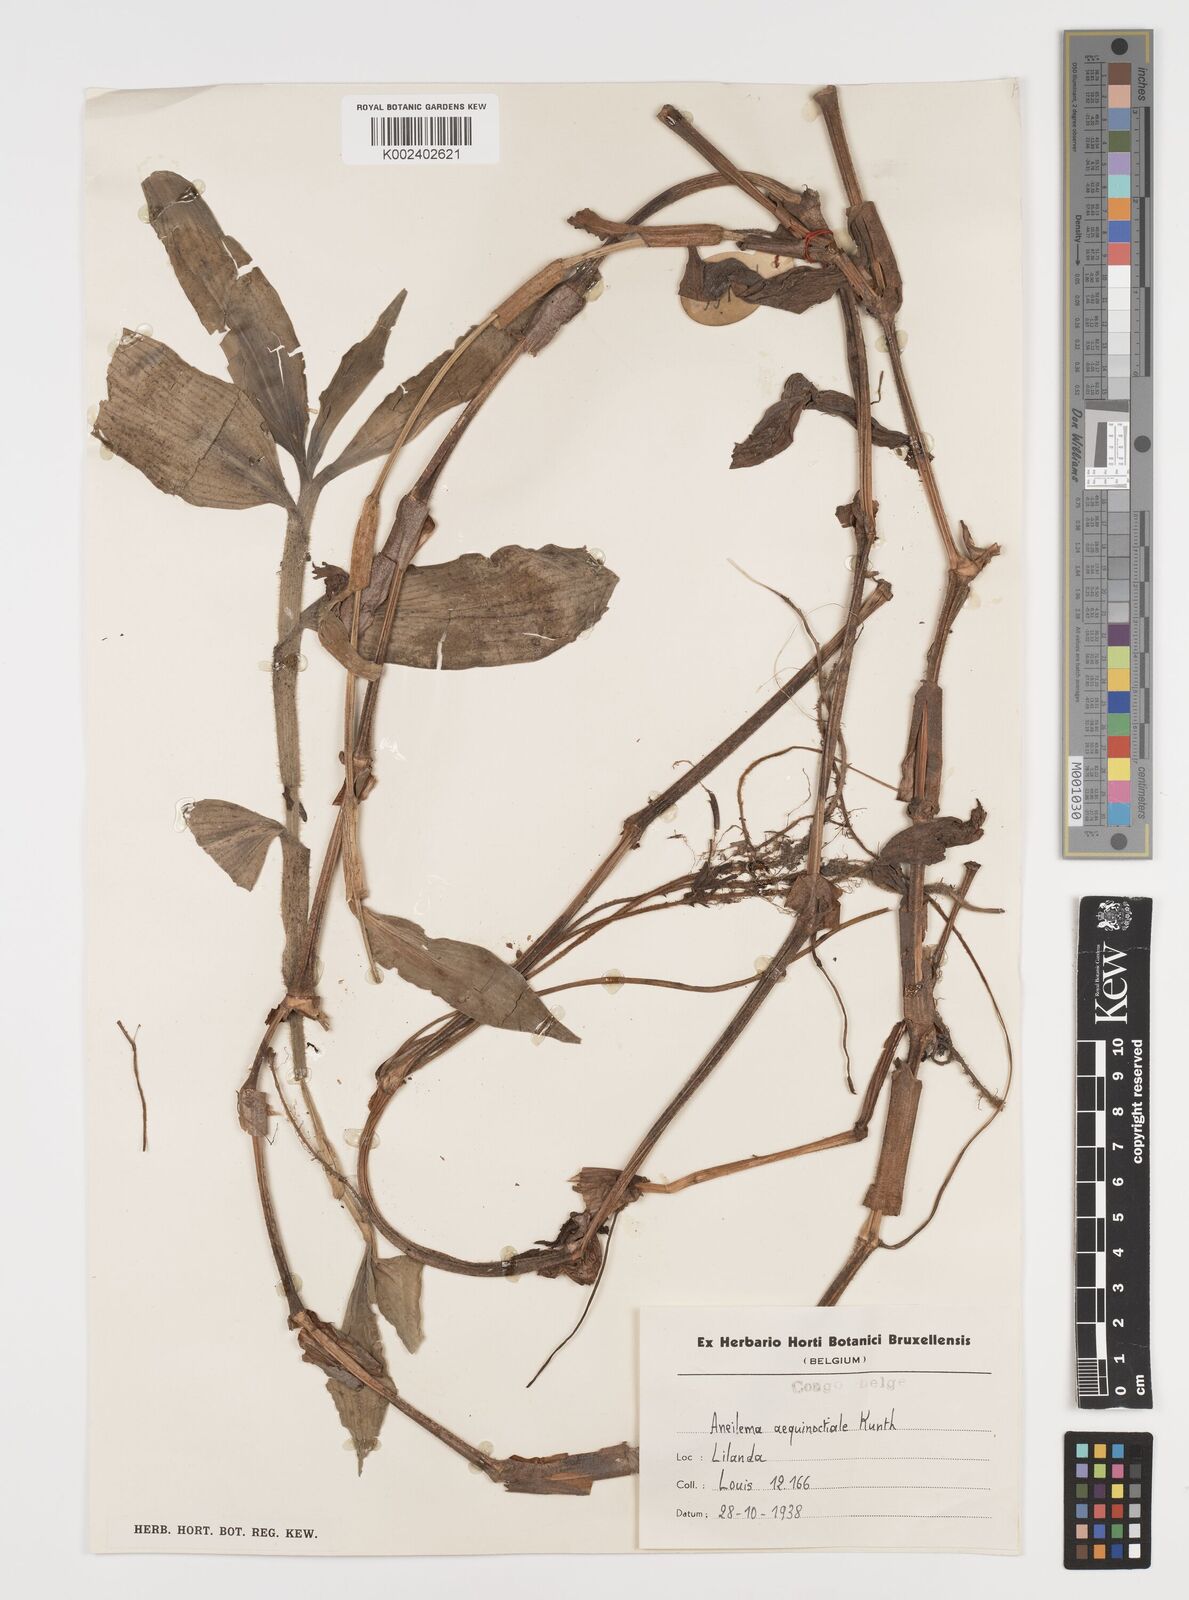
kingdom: Plantae
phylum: Tracheophyta
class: Liliopsida
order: Commelinales
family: Commelinaceae
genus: Aneilema
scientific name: Aneilema aequinoctiale
